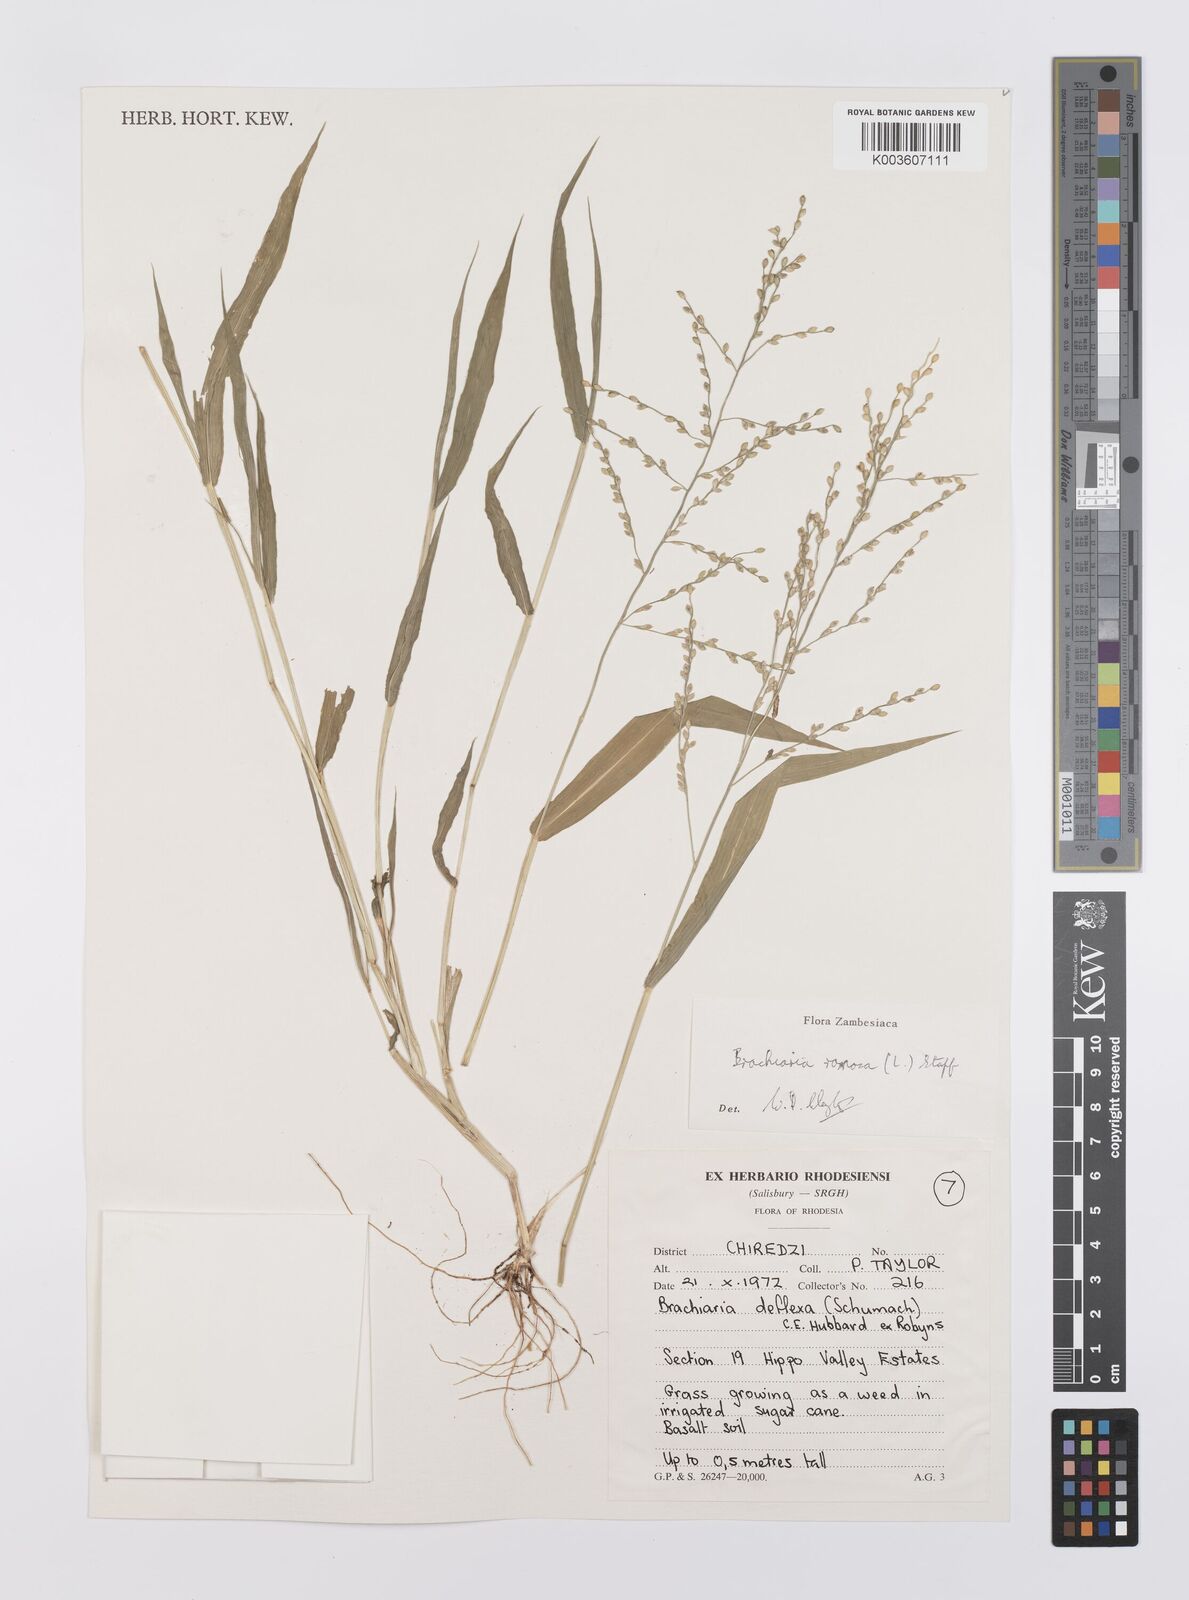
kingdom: Plantae
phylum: Tracheophyta
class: Liliopsida
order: Poales
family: Poaceae
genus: Urochloa
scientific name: Urochloa ramosa
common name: Browntop millet
